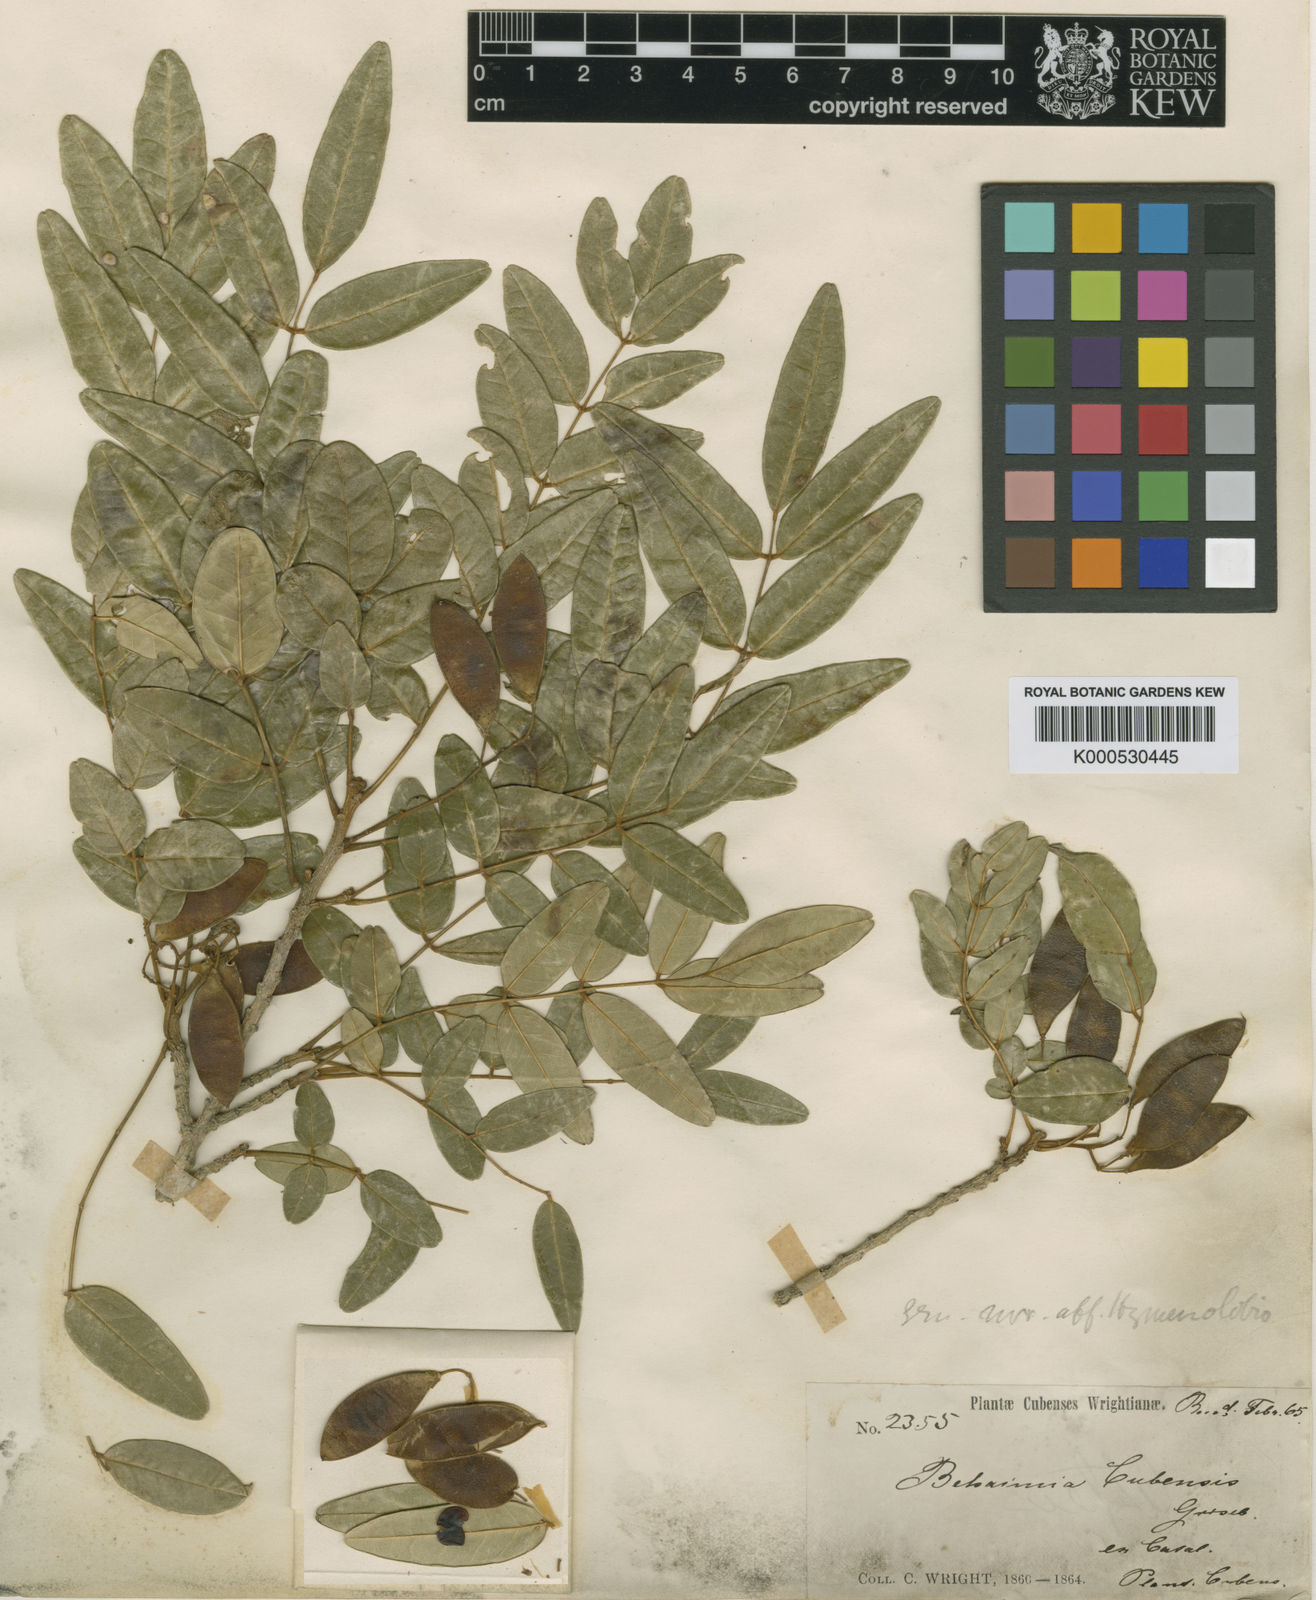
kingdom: Plantae
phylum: Tracheophyta
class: Magnoliopsida
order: Fabales
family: Fabaceae
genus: Behaimia
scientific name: Behaimia cubensis
